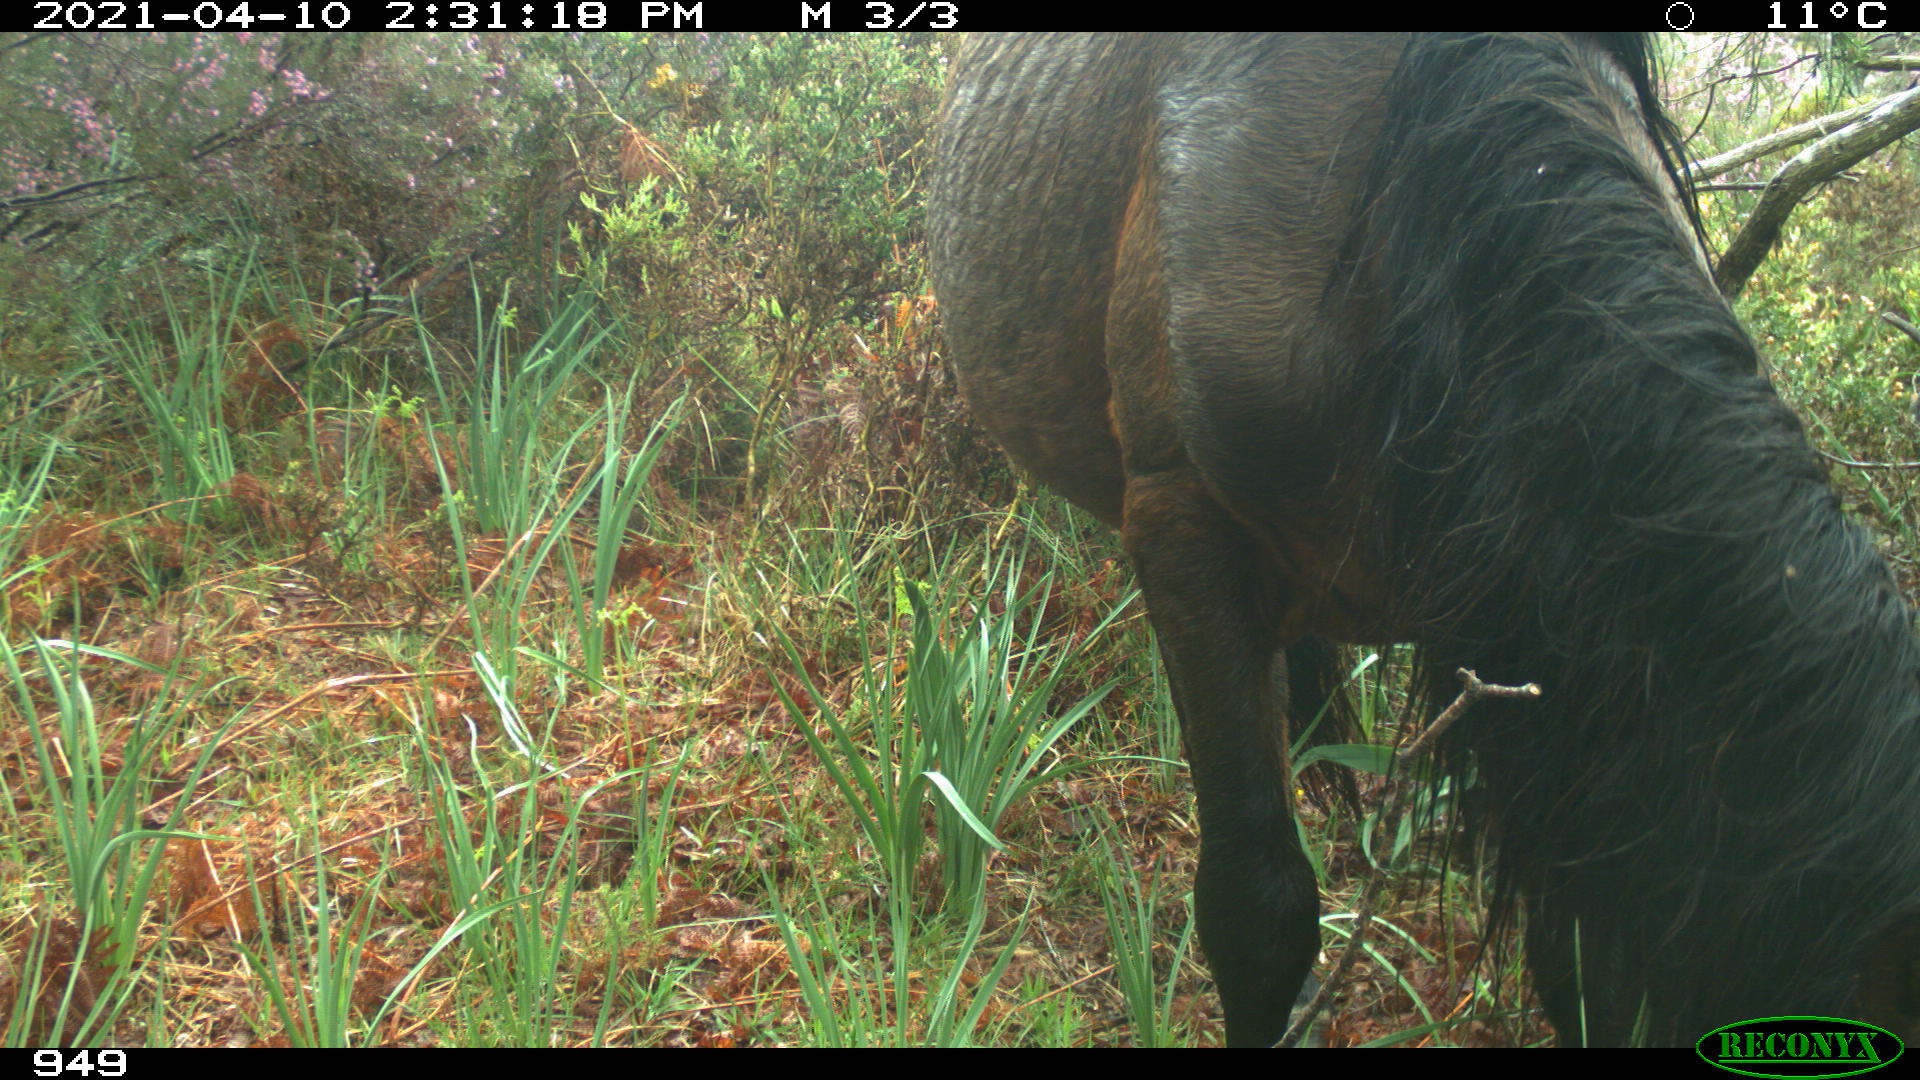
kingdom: Animalia
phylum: Chordata
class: Mammalia
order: Perissodactyla
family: Equidae
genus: Equus
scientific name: Equus caballus
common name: Horse
